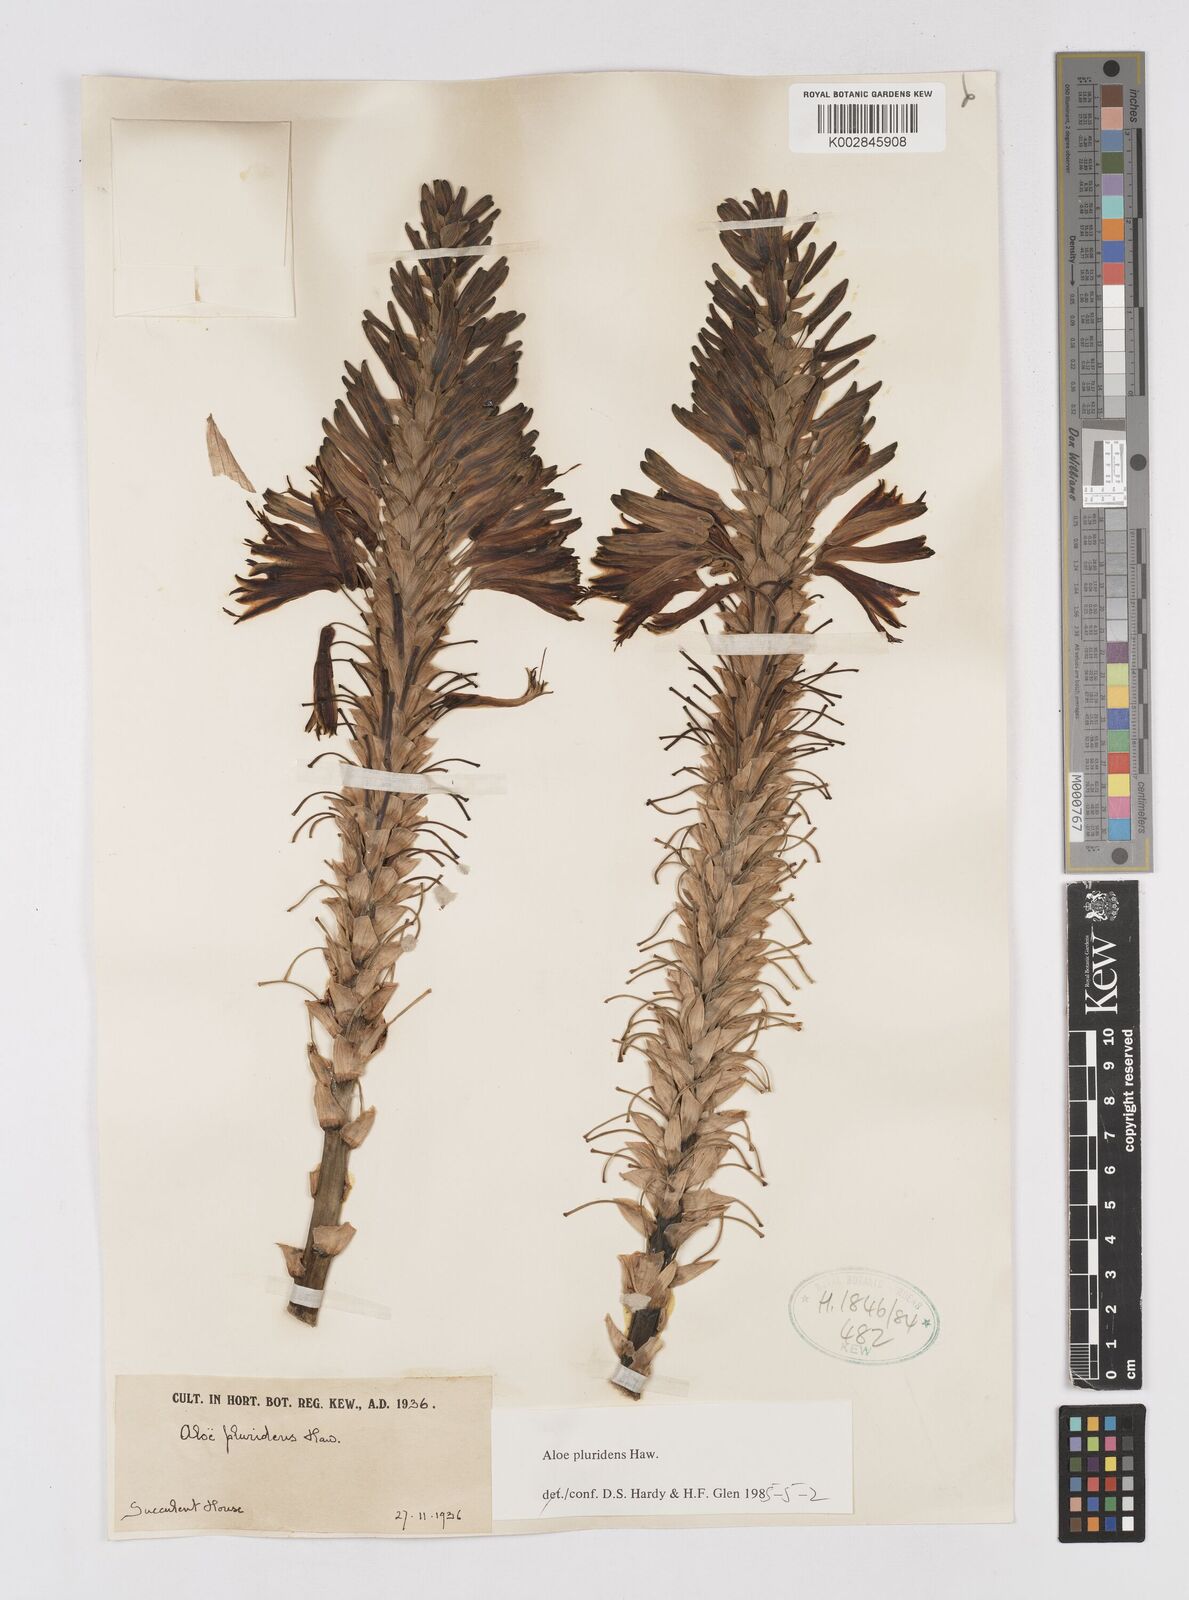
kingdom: Plantae
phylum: Tracheophyta
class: Liliopsida
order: Asparagales
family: Asphodelaceae
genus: Aloe
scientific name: Aloe pluridens
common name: French aloe
